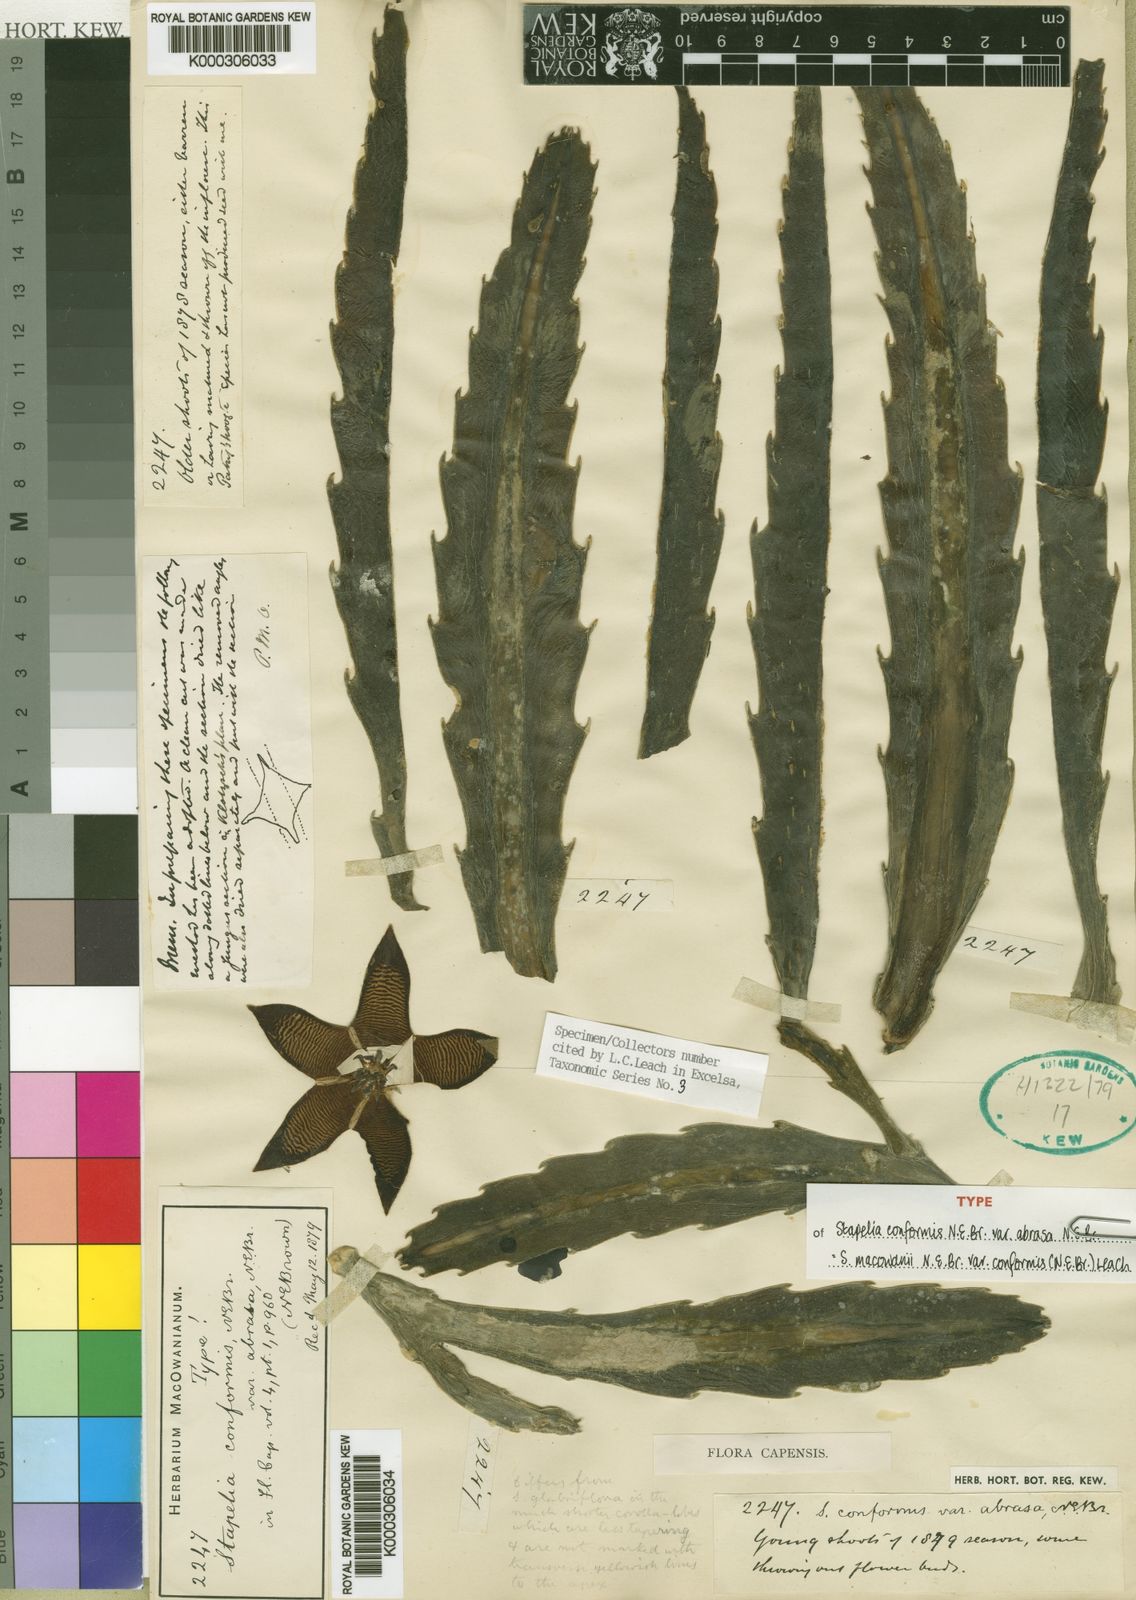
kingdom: Plantae
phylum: Tracheophyta
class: Magnoliopsida
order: Gentianales
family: Apocynaceae
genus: Ceropegia
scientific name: Ceropegia grandiflora
